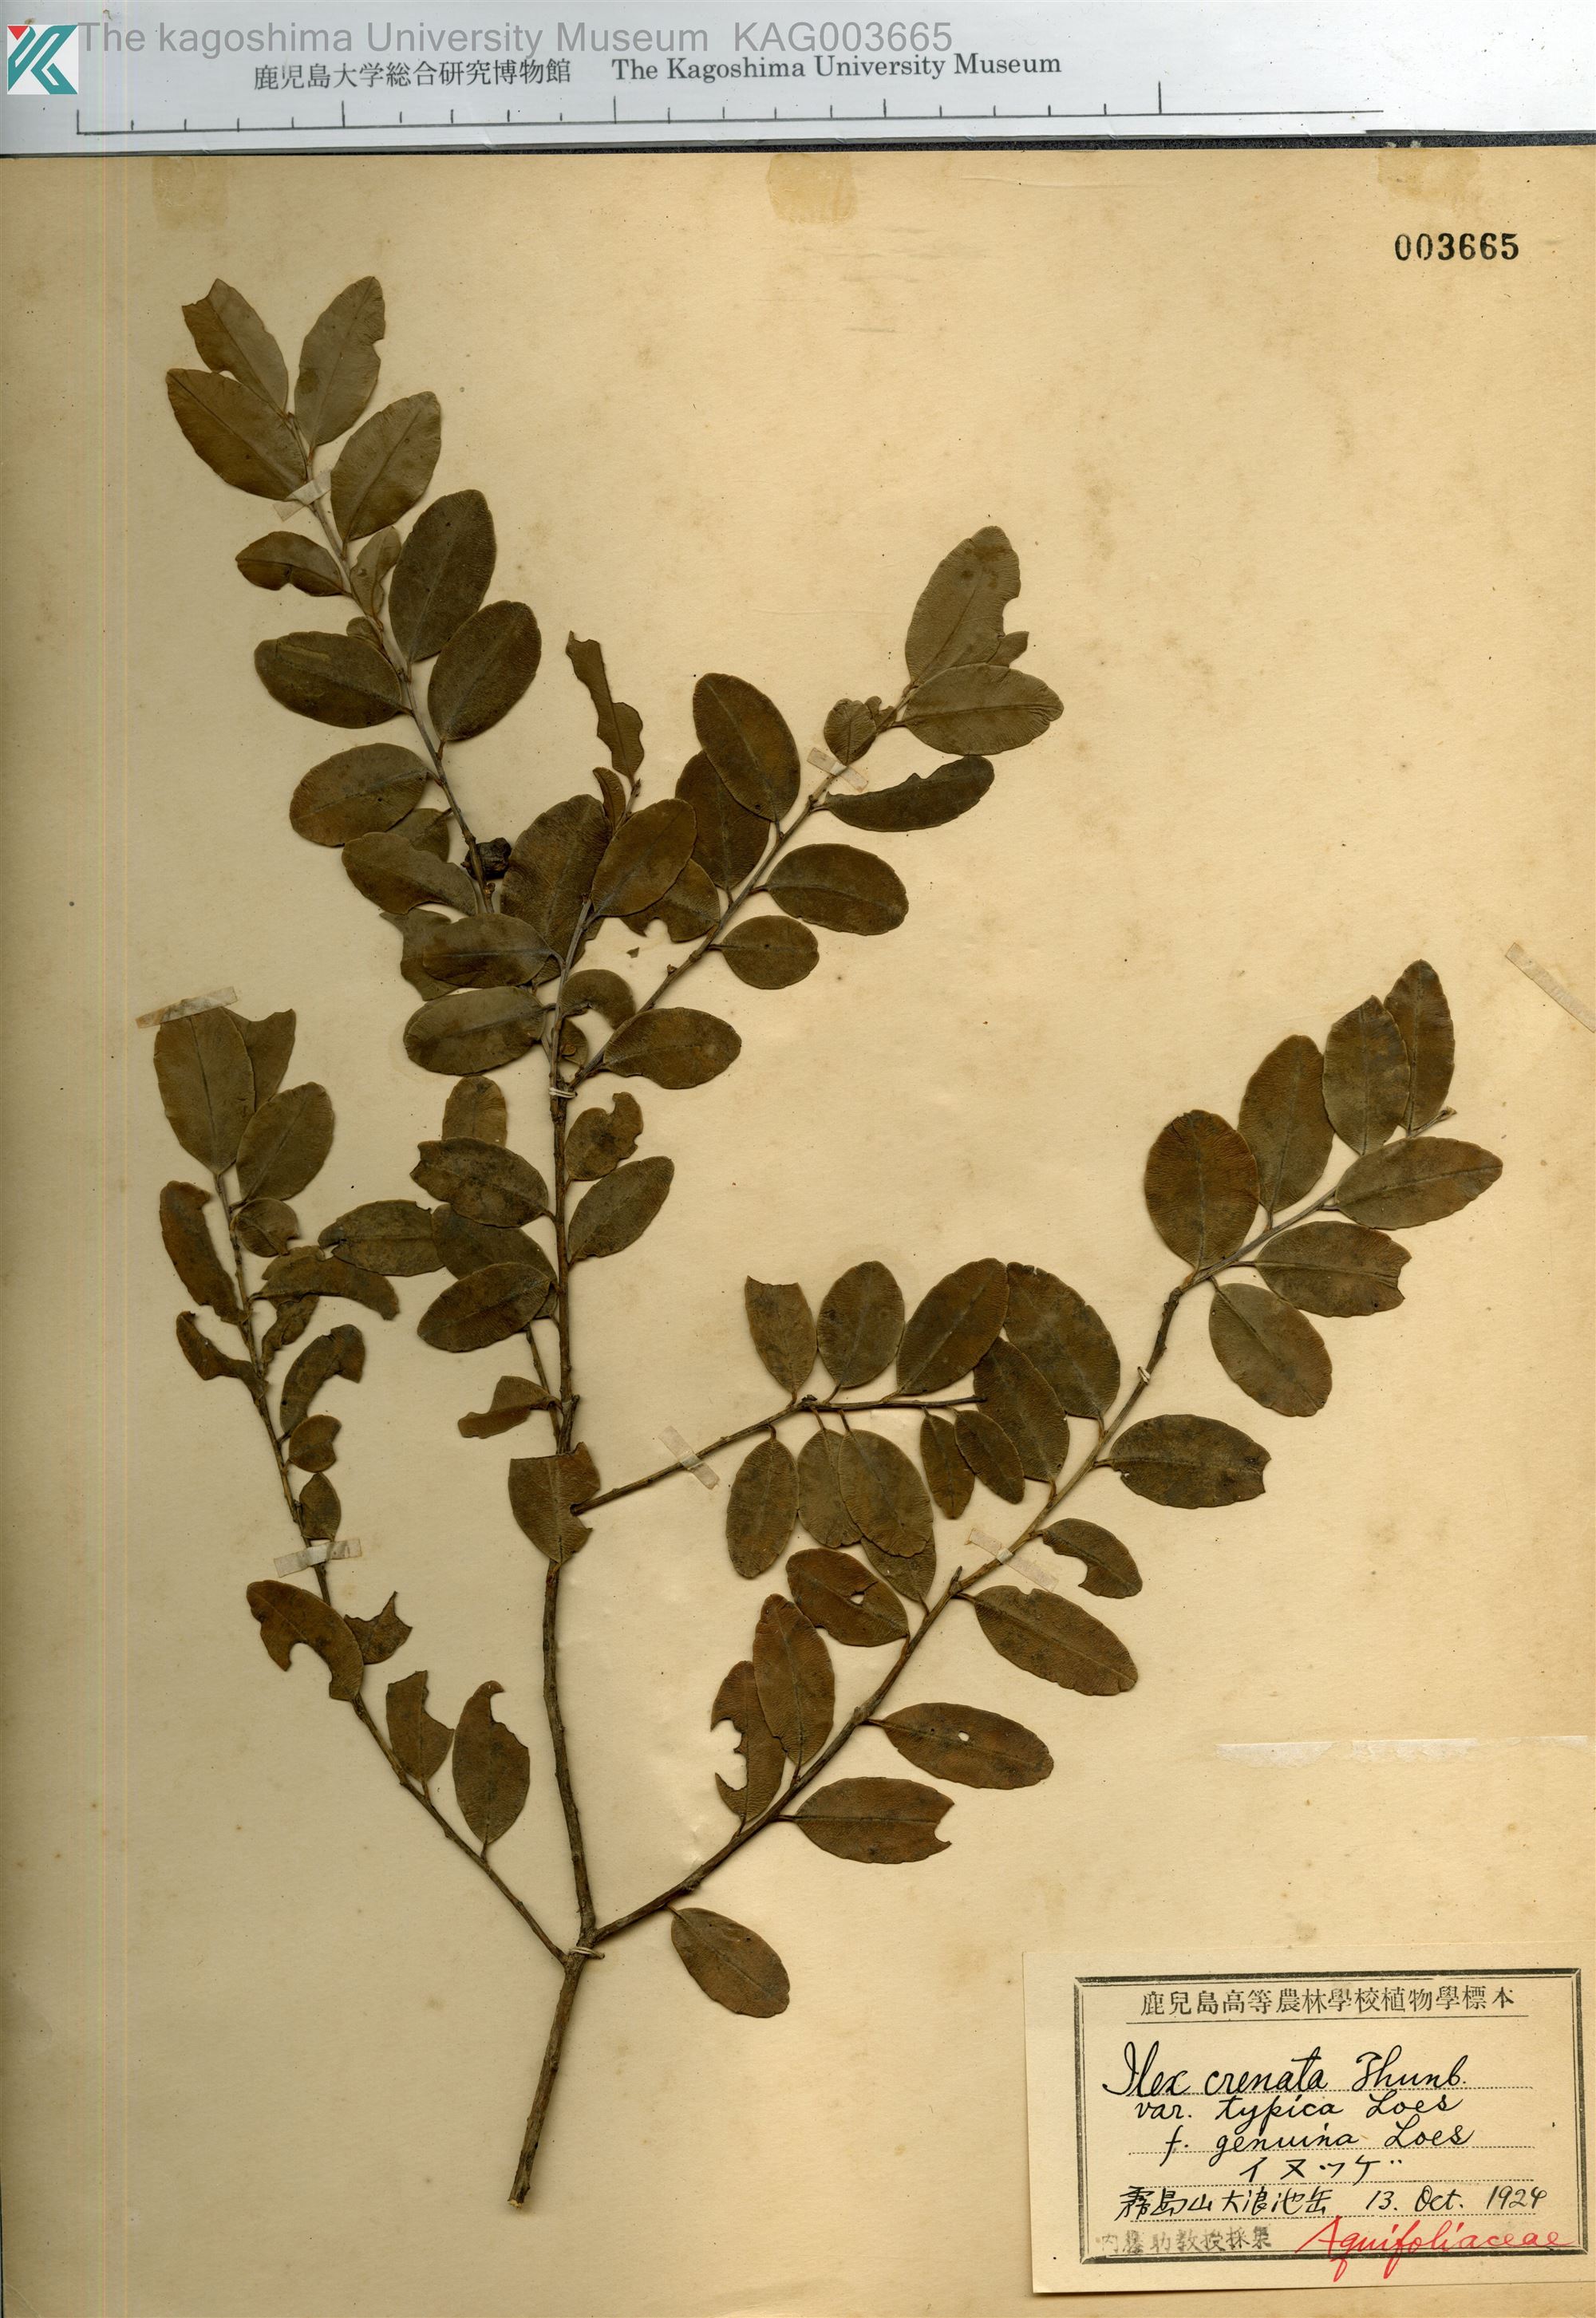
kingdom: Plantae
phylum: Tracheophyta
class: Magnoliopsida
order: Aquifoliales
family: Aquifoliaceae
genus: Ilex
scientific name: Ilex crenata
